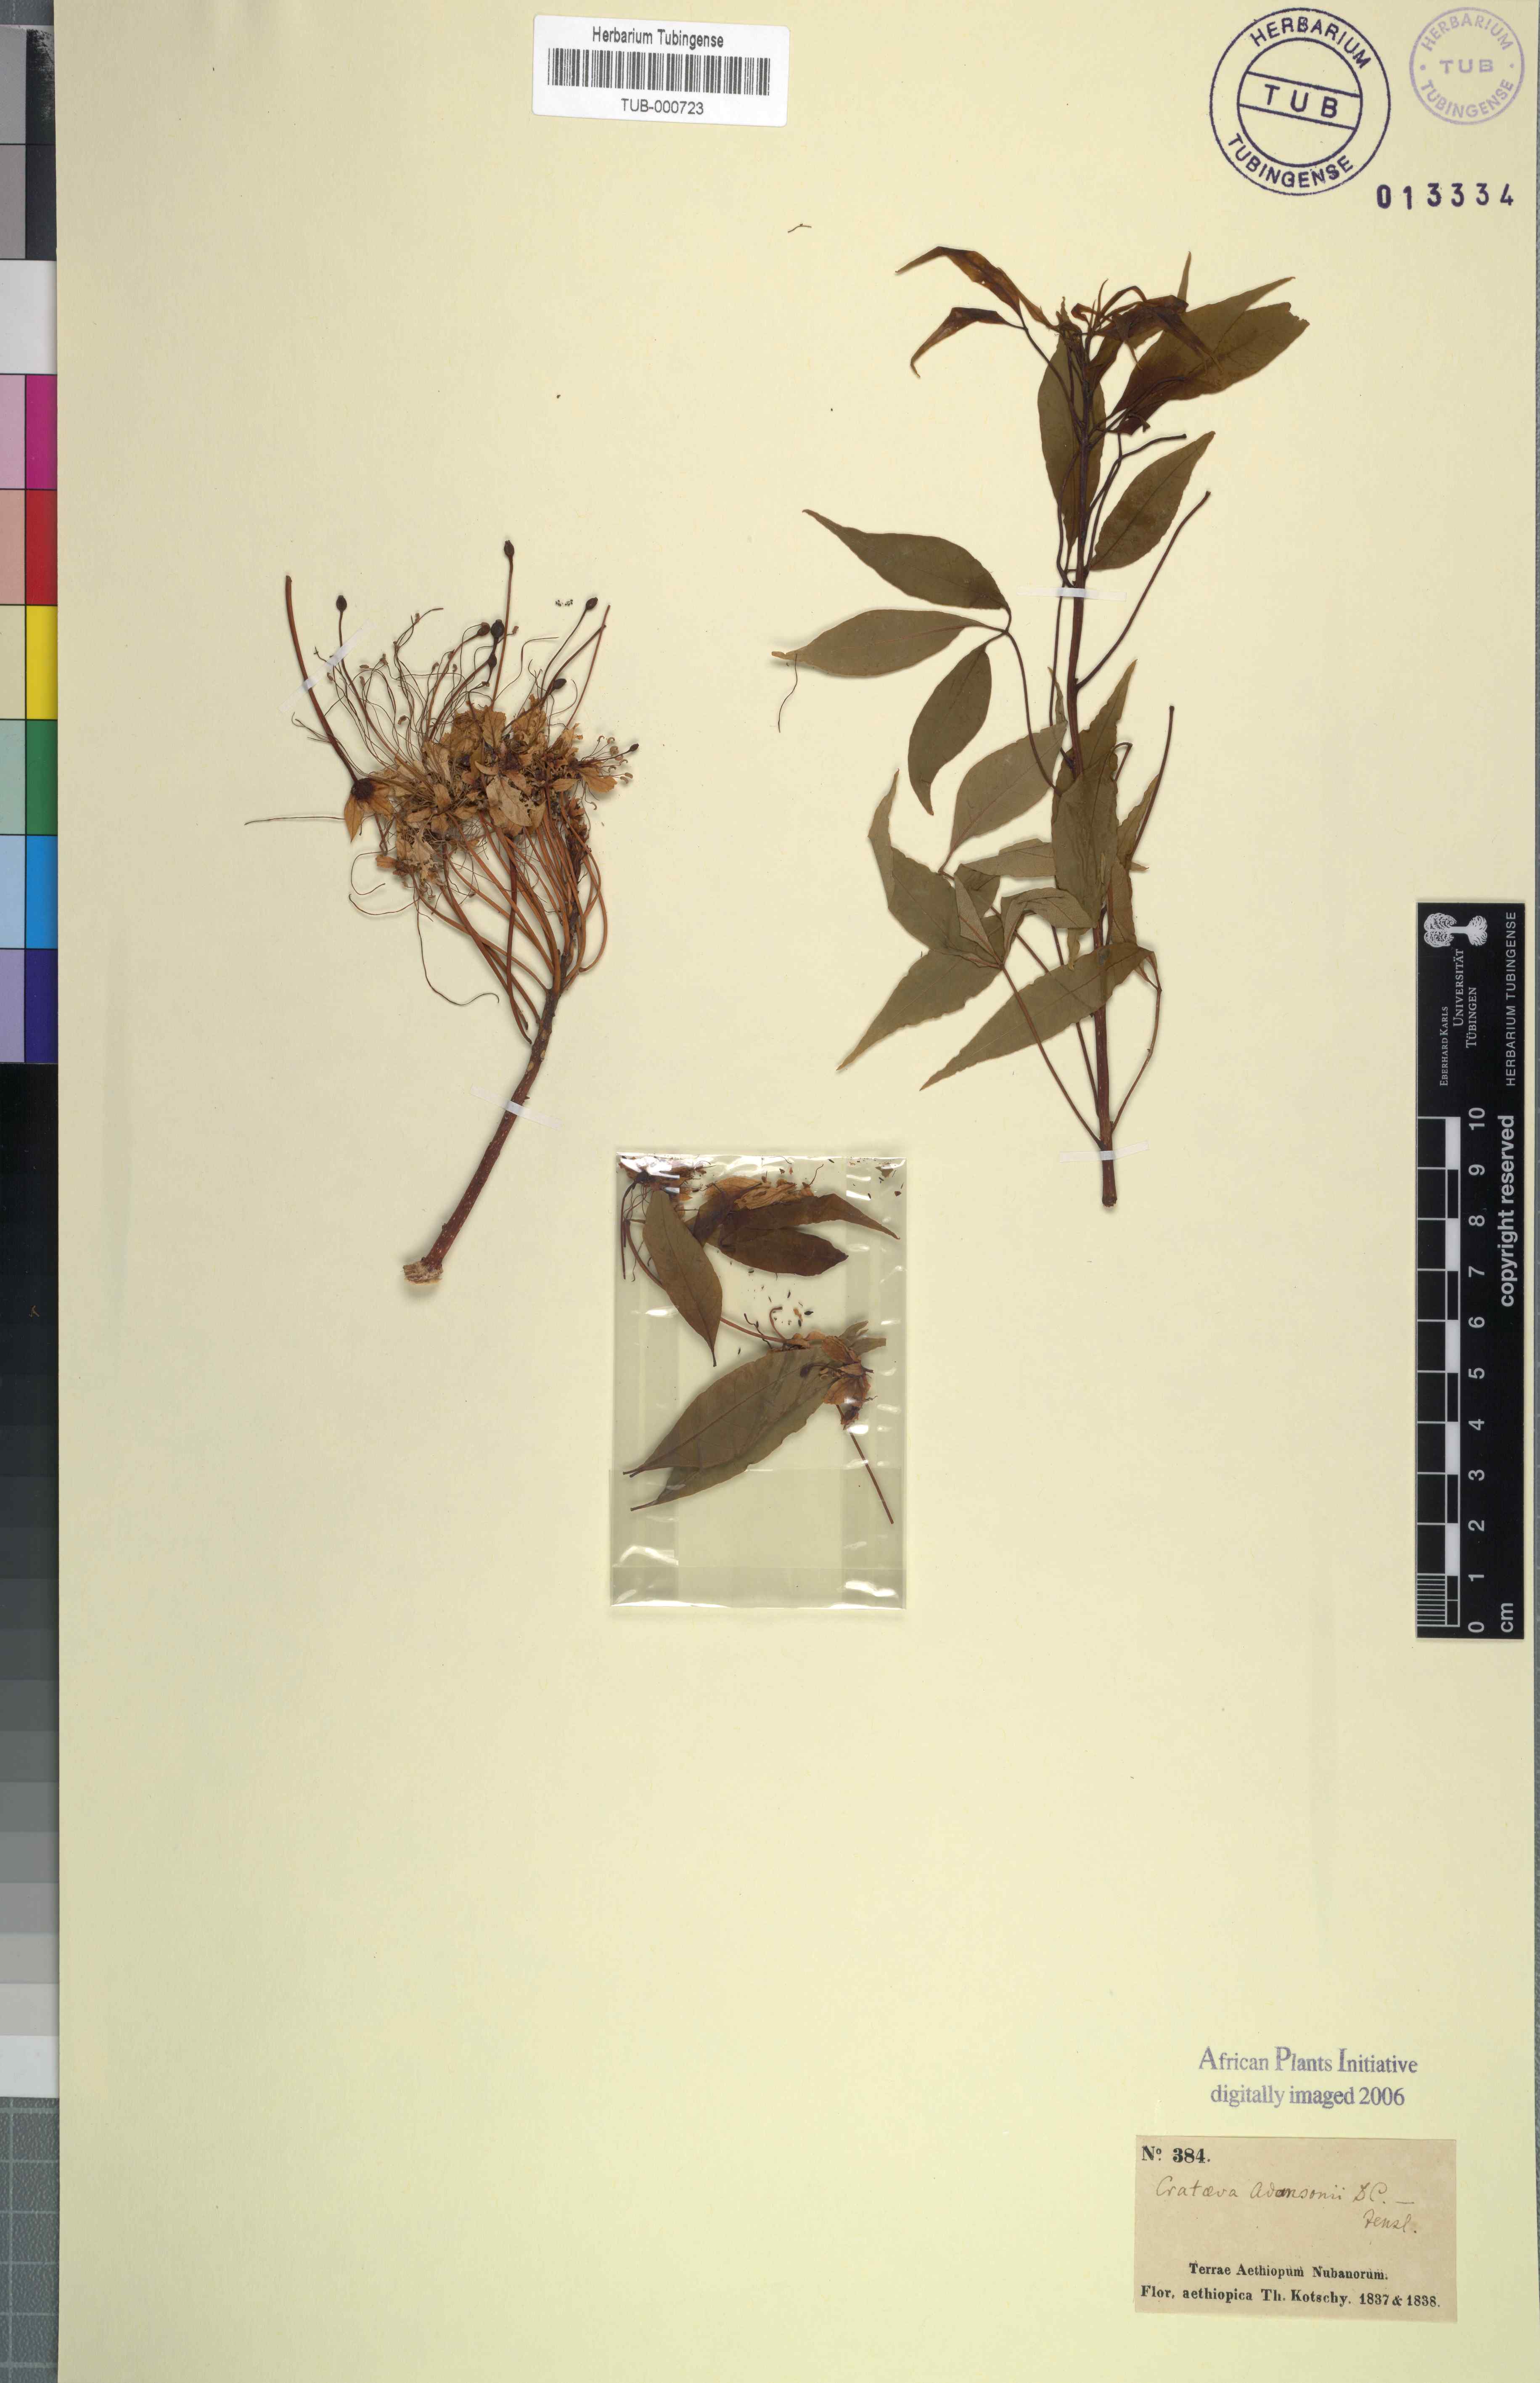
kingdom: Plantae
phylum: Tracheophyta
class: Magnoliopsida
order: Brassicales
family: Capparaceae
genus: Crateva
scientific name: Crateva religiosa
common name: March dalur
